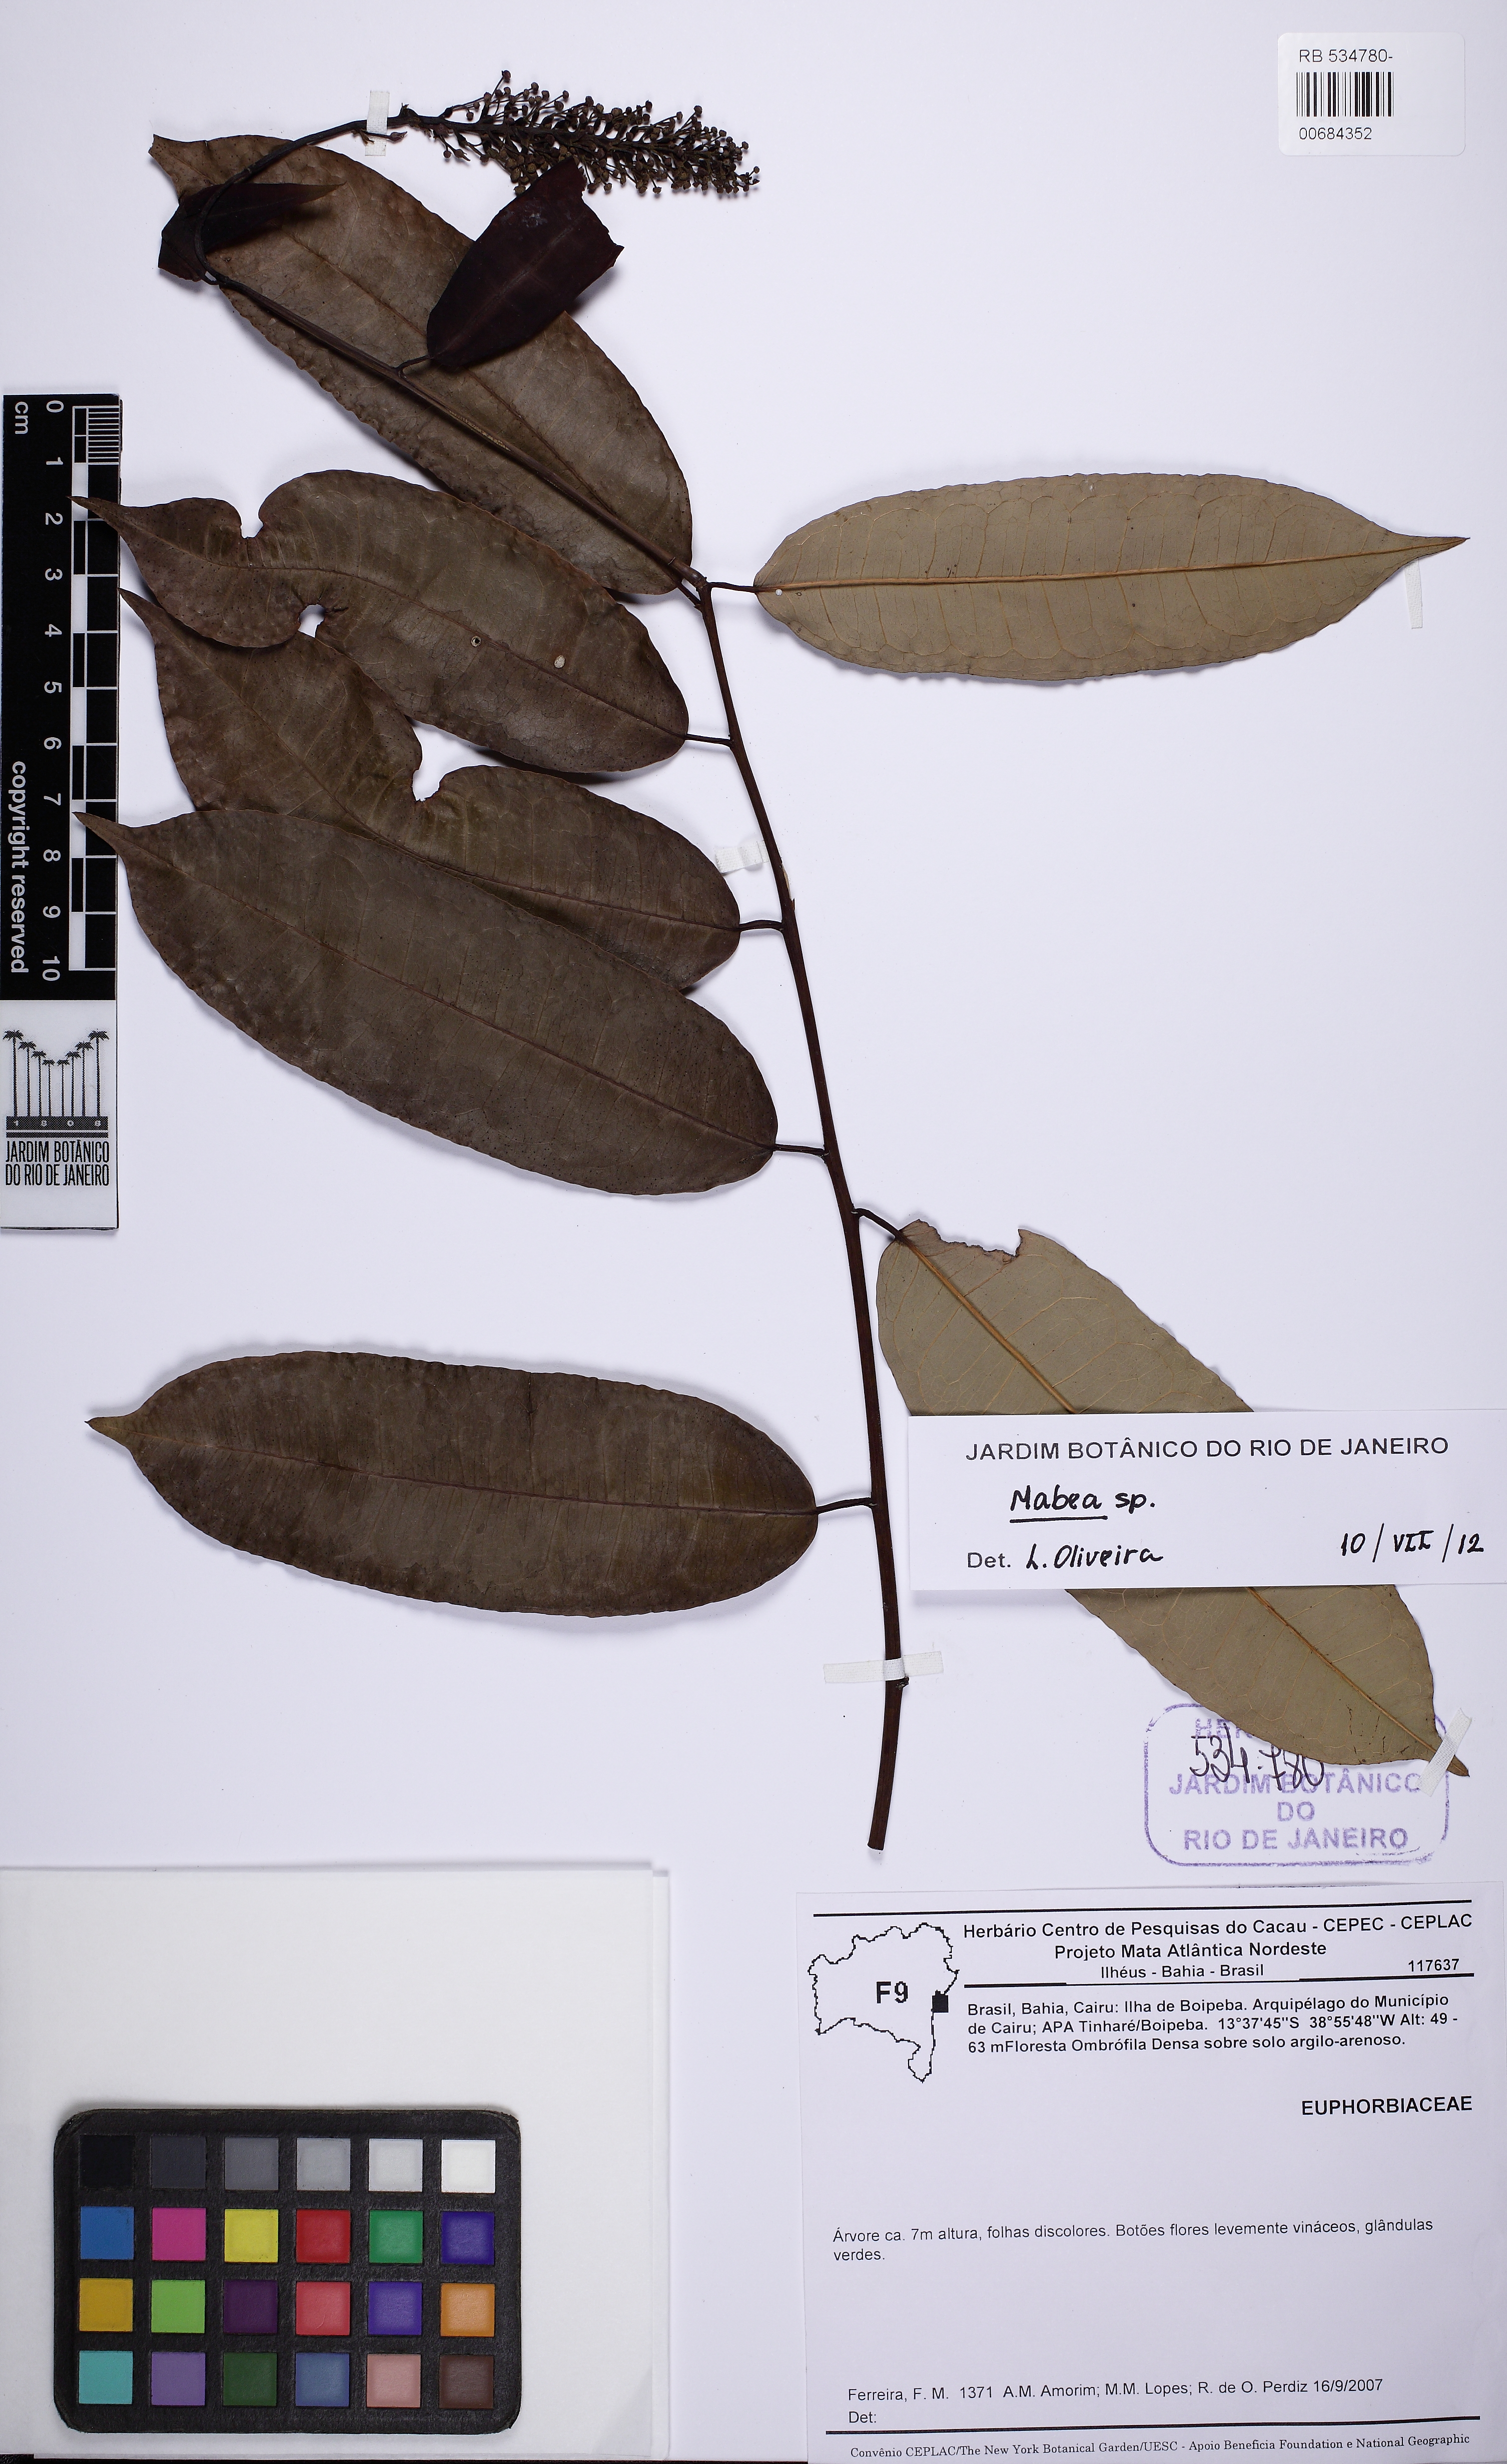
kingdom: Plantae
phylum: Tracheophyta
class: Magnoliopsida
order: Malpighiales
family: Euphorbiaceae
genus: Mabea
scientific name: Mabea
